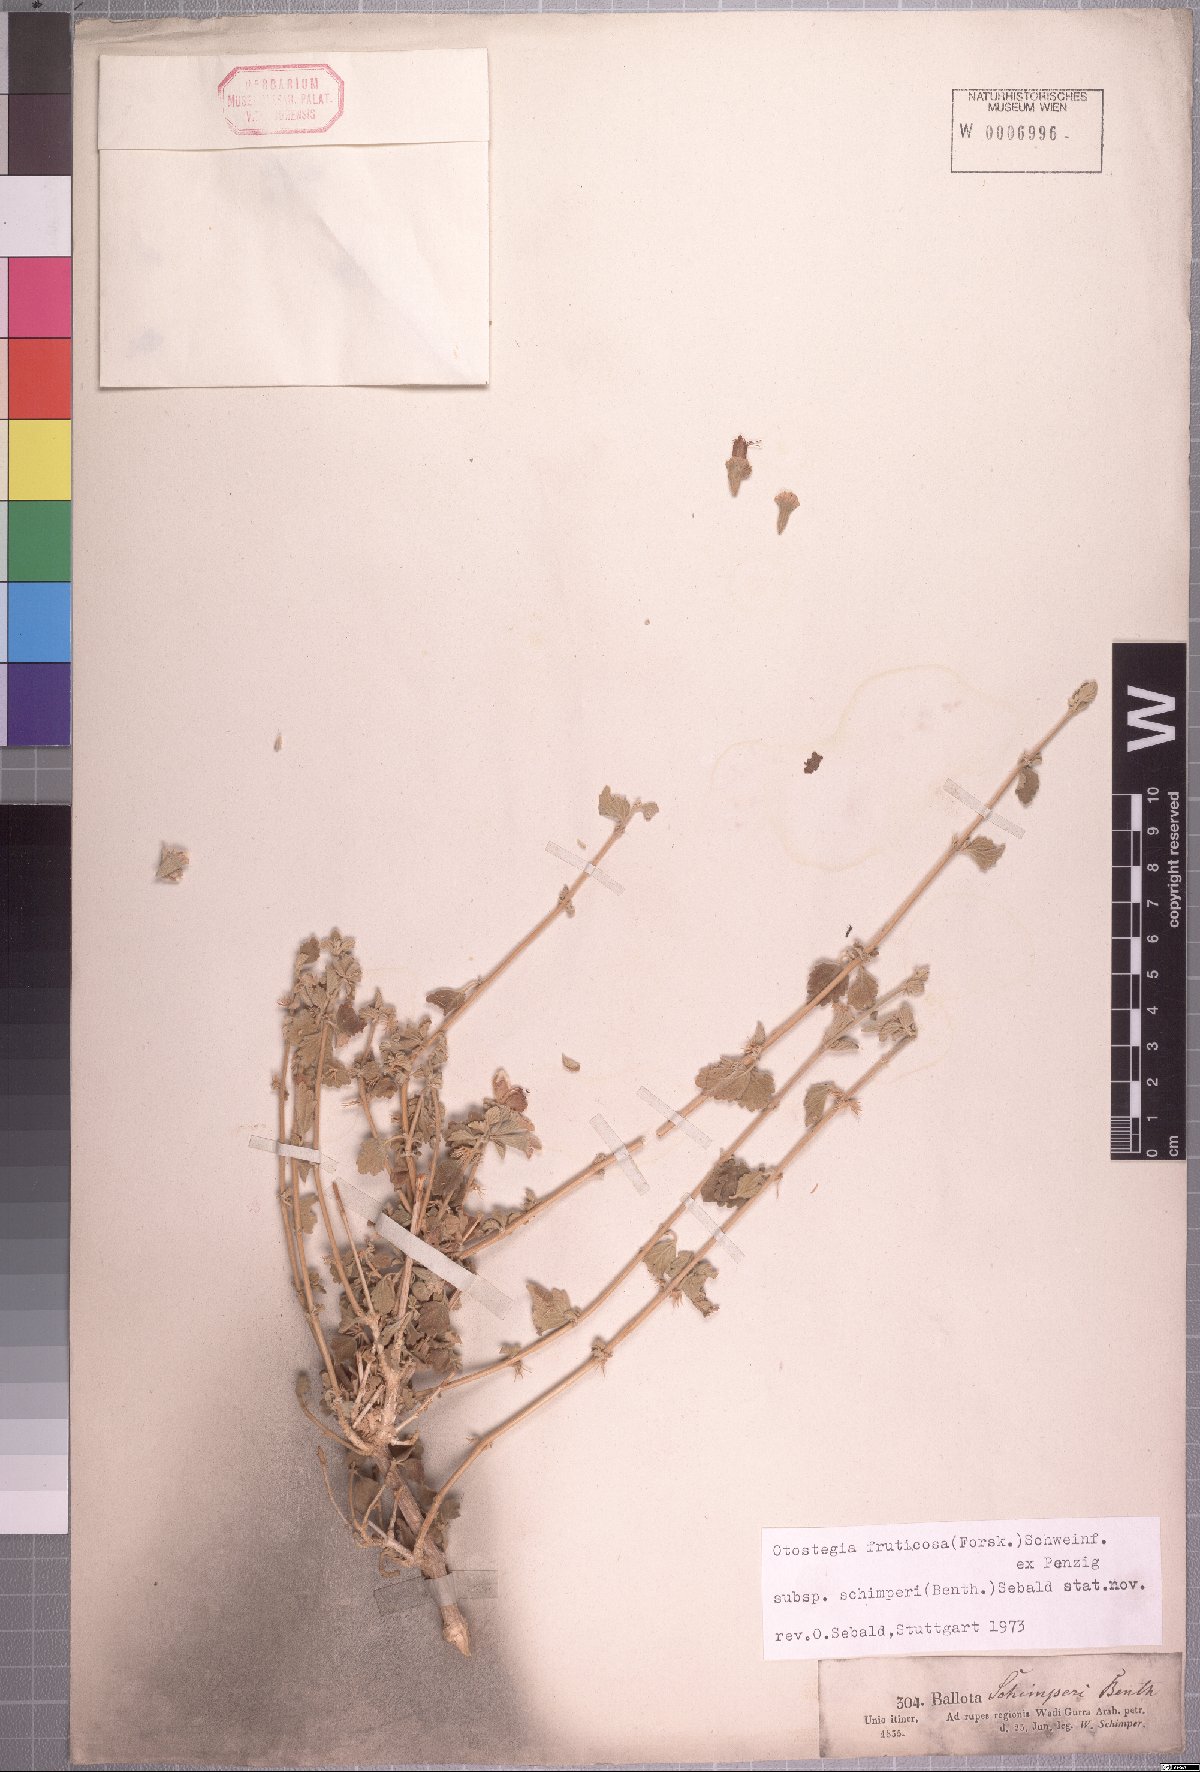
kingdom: Plantae
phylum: Tracheophyta
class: Magnoliopsida
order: Lamiales
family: Lamiaceae
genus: Otostegia
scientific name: Otostegia fruticosa
